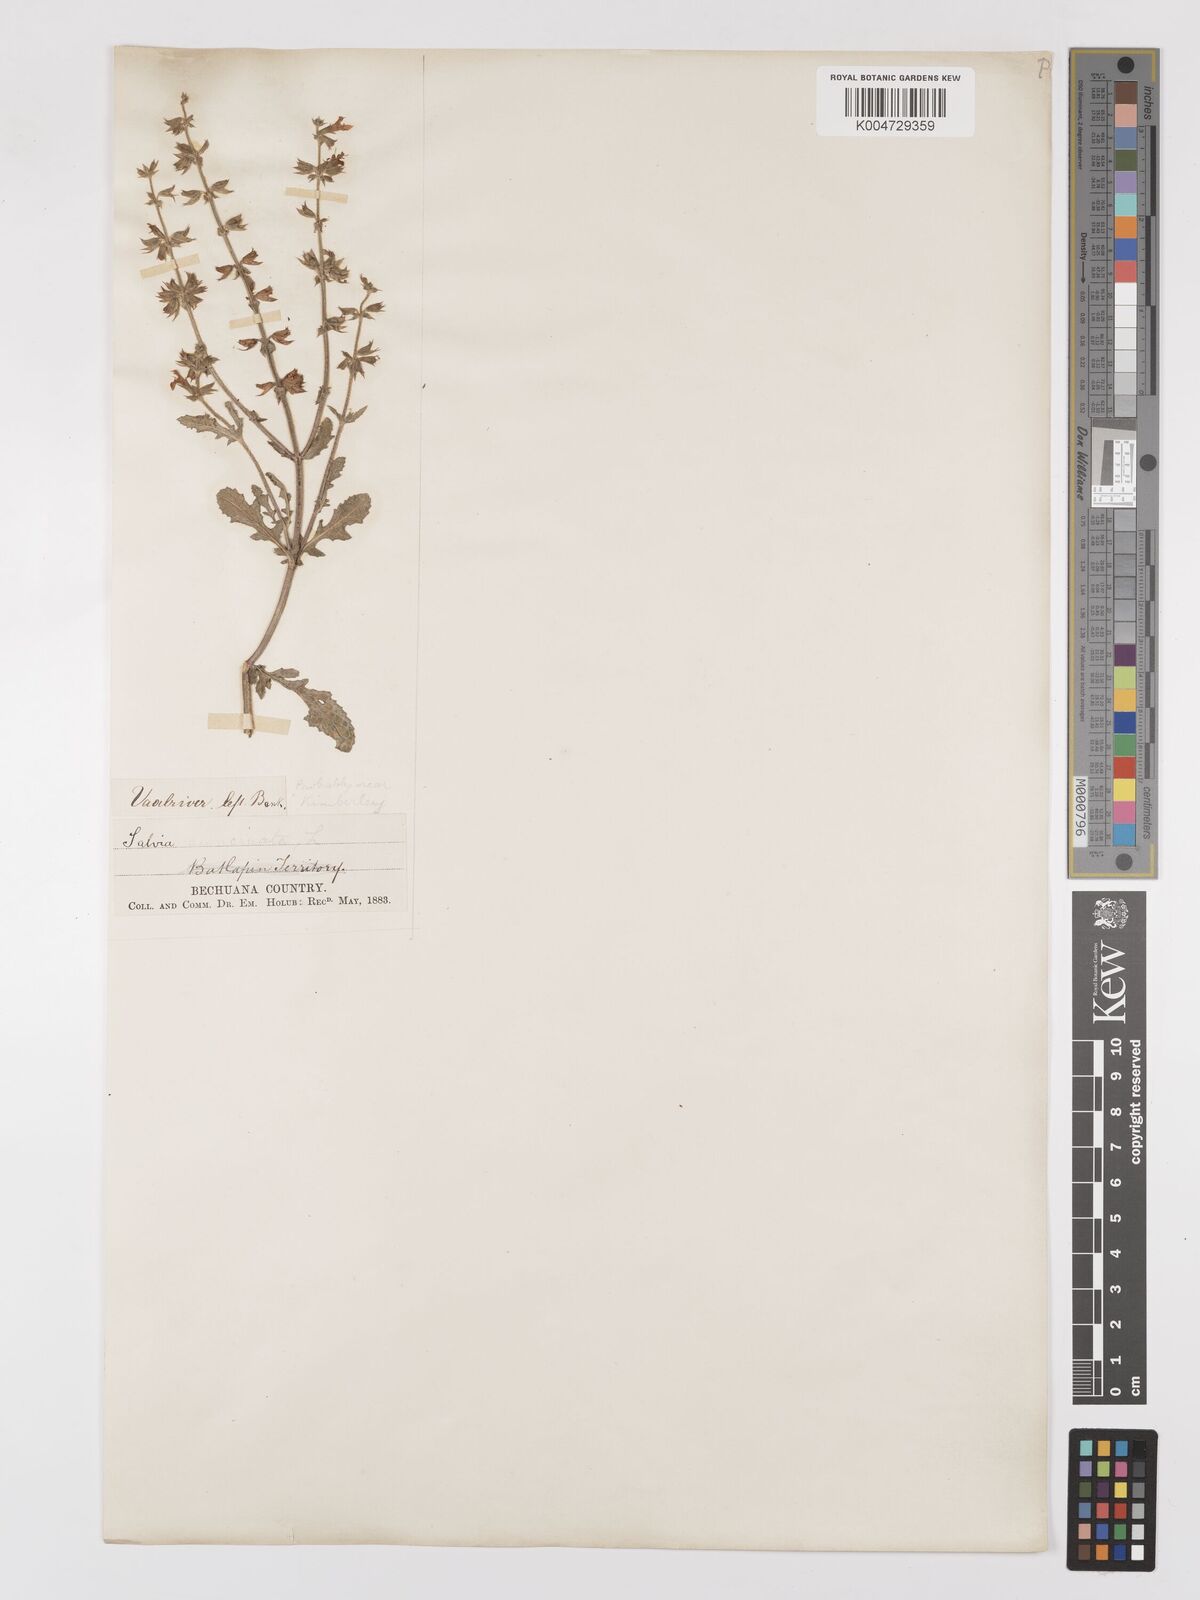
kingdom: Plantae
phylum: Tracheophyta
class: Magnoliopsida
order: Lamiales
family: Lamiaceae
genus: Salvia
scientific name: Salvia stenophylla
